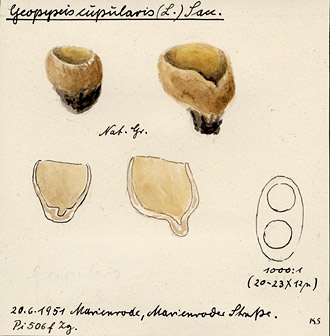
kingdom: Fungi
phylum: Ascomycota
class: Pezizomycetes
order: Pezizales
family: Pyronemataceae
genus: Tarzetta
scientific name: Tarzetta cupularis
